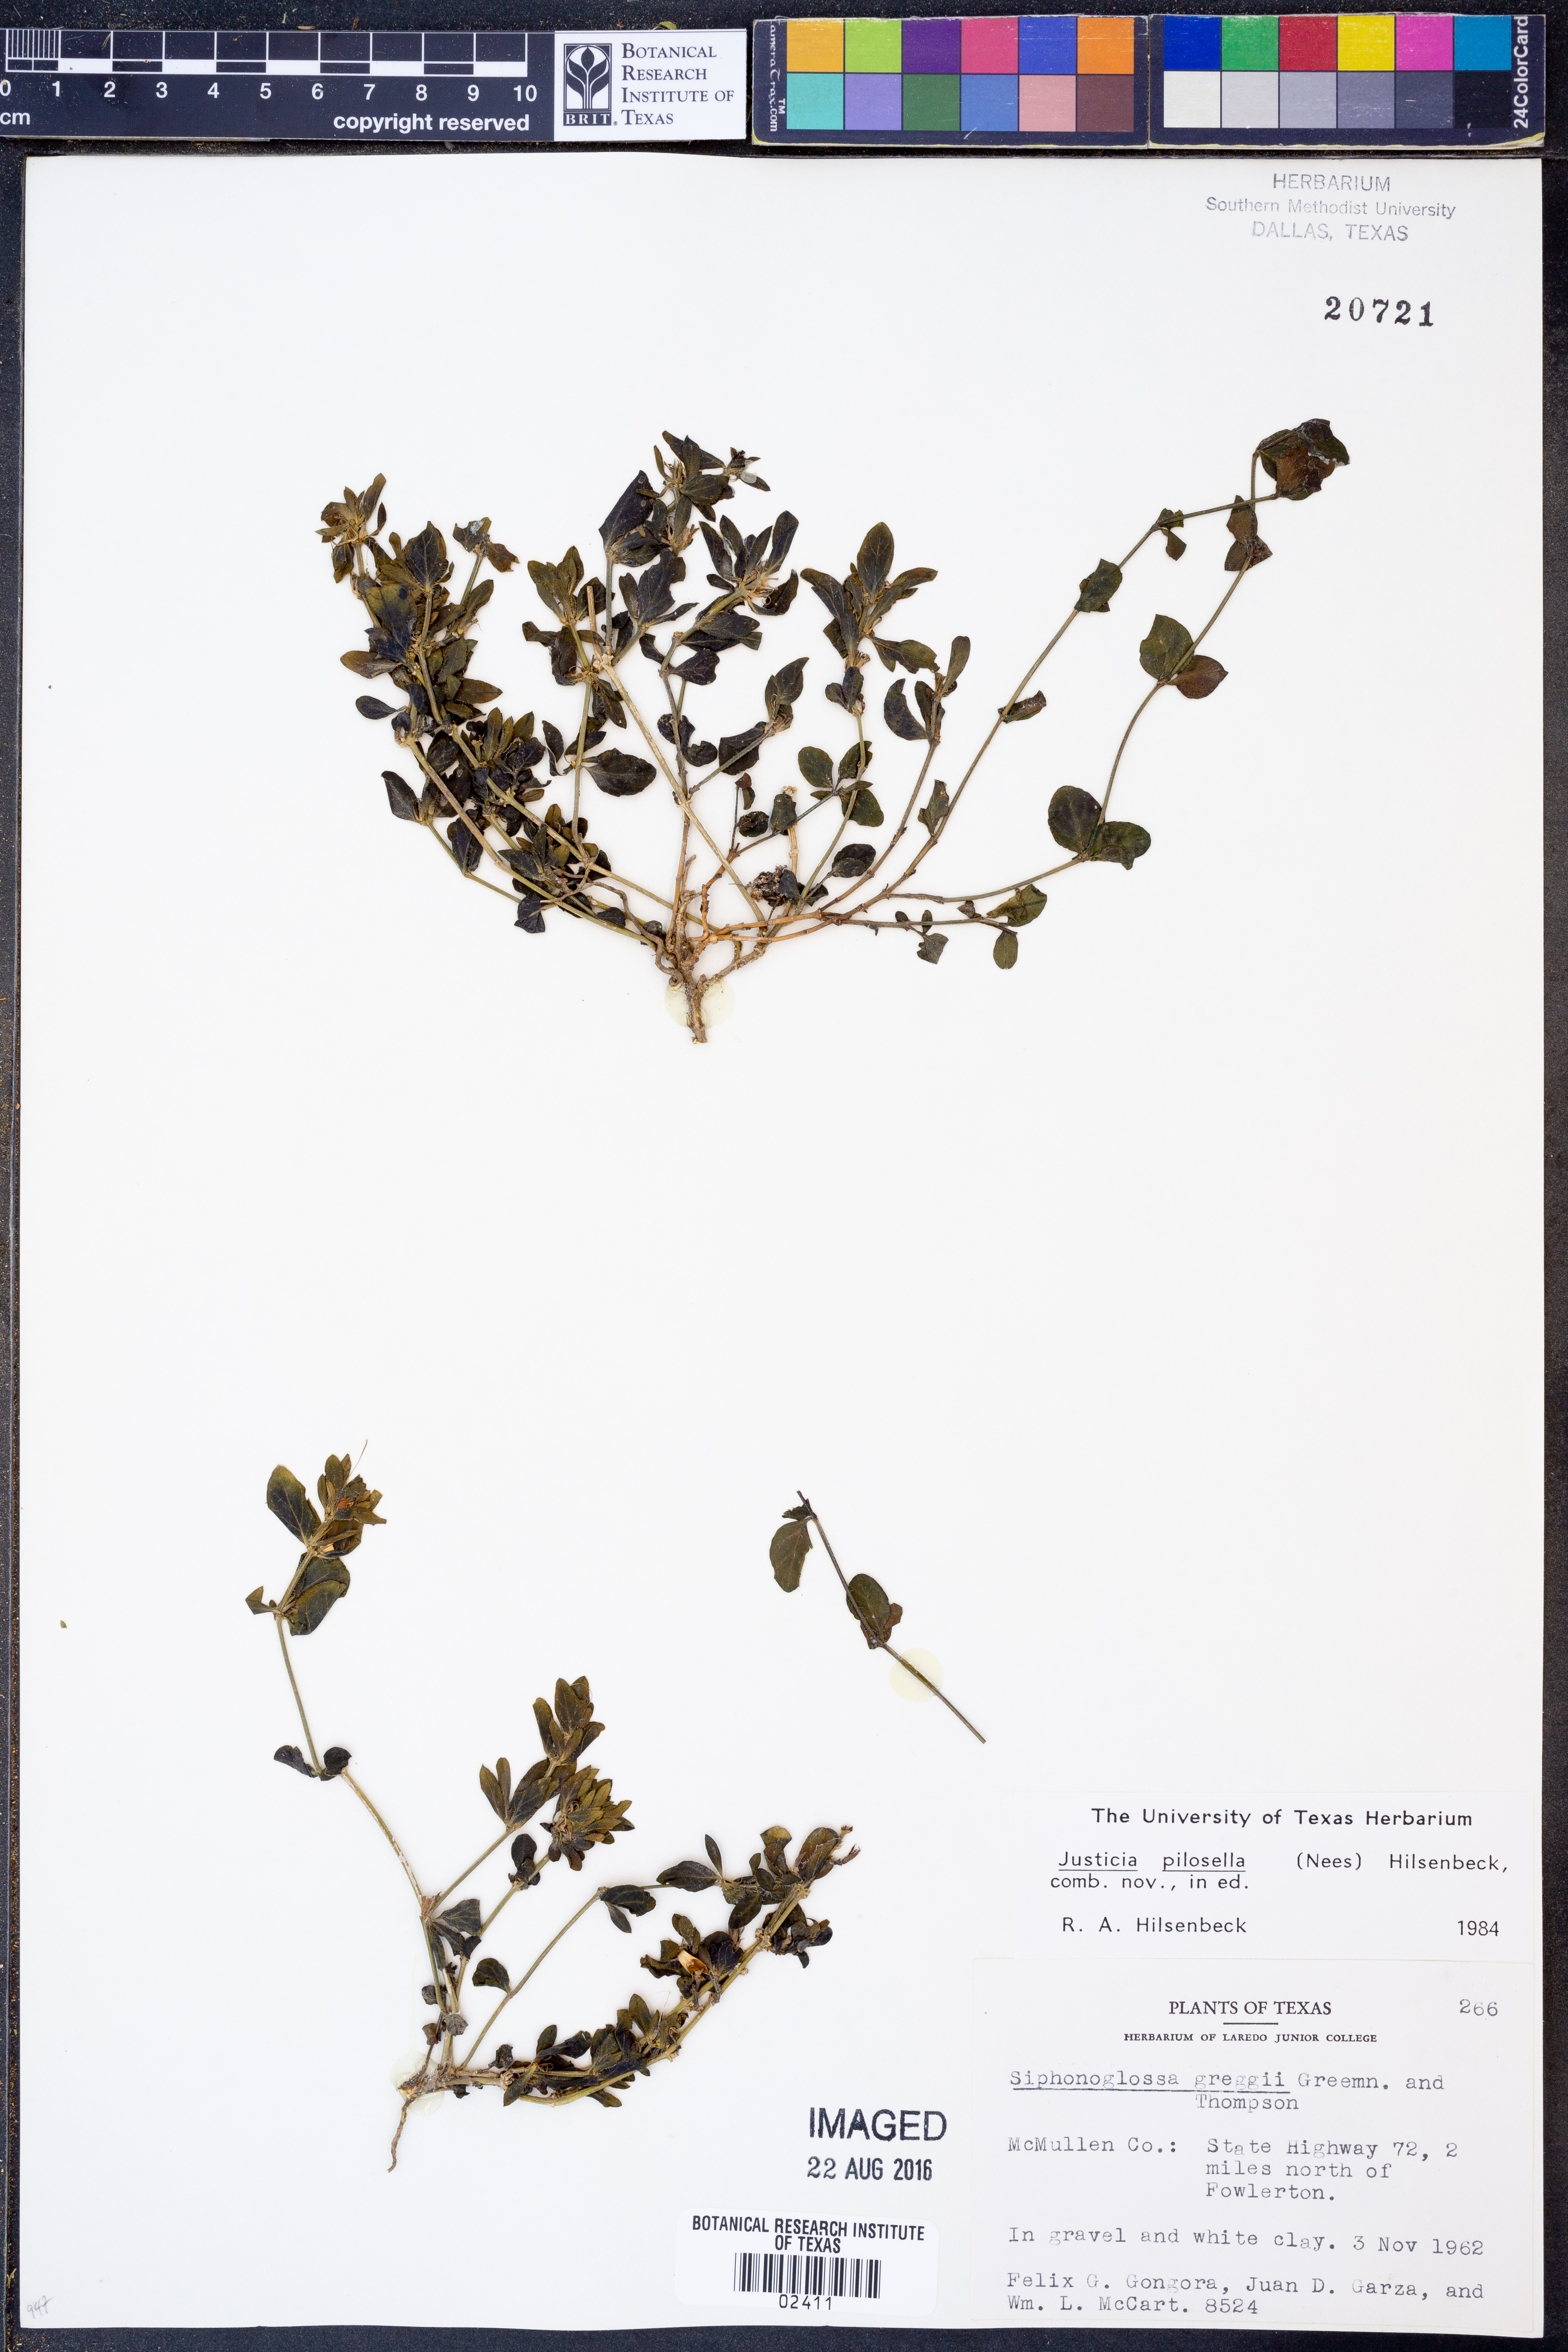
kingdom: Plantae
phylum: Tracheophyta
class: Magnoliopsida
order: Lamiales
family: Acanthaceae
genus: Justicia
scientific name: Justicia pilosella
